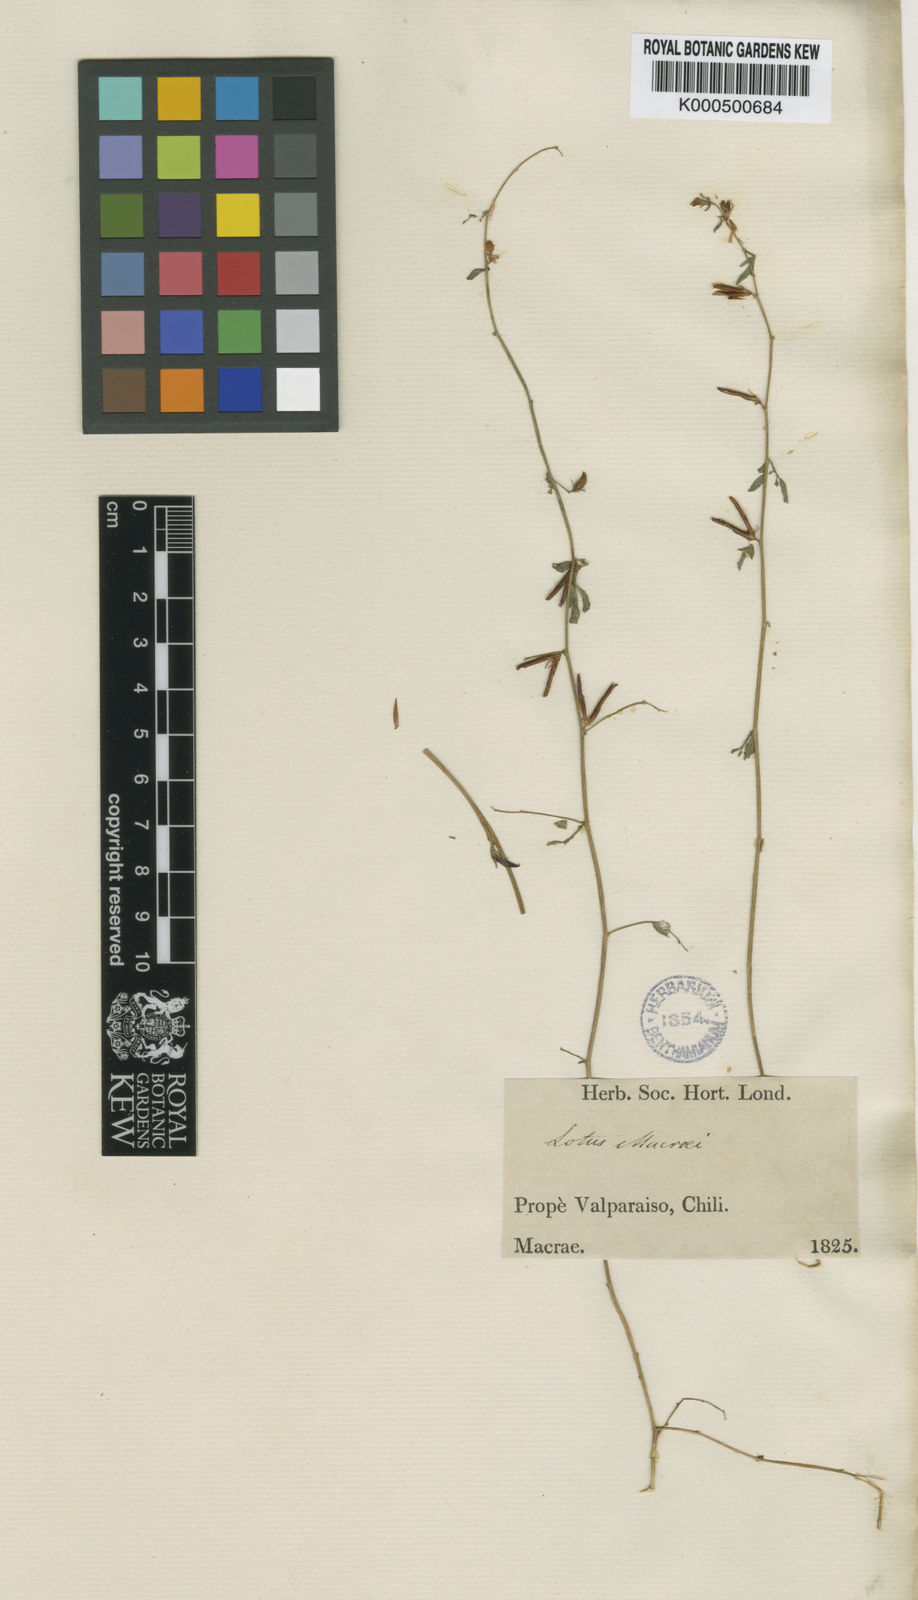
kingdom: Plantae
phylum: Tracheophyta
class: Magnoliopsida
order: Fabales
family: Fabaceae
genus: Acmispon
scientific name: Acmispon subpinnatus
